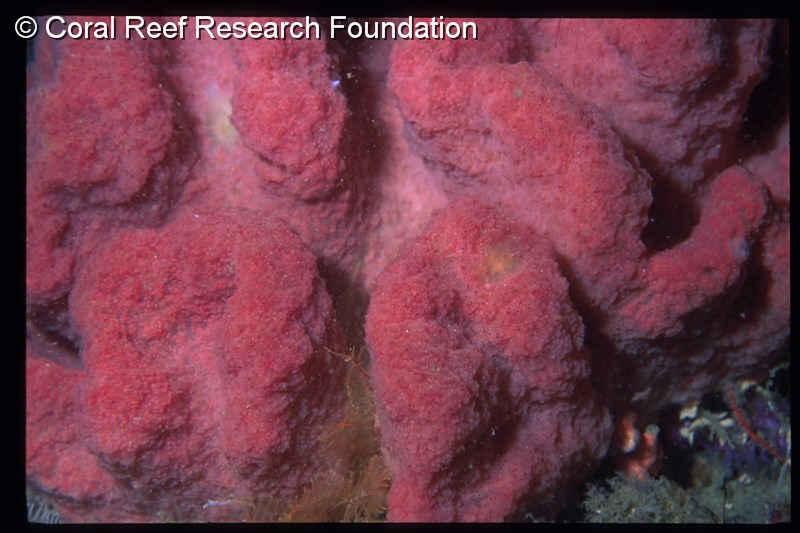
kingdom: Animalia
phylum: Chordata
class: Ascidiacea
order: Aplousobranchia
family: Polyclinidae
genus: Aplidium
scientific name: Aplidium circulatum
